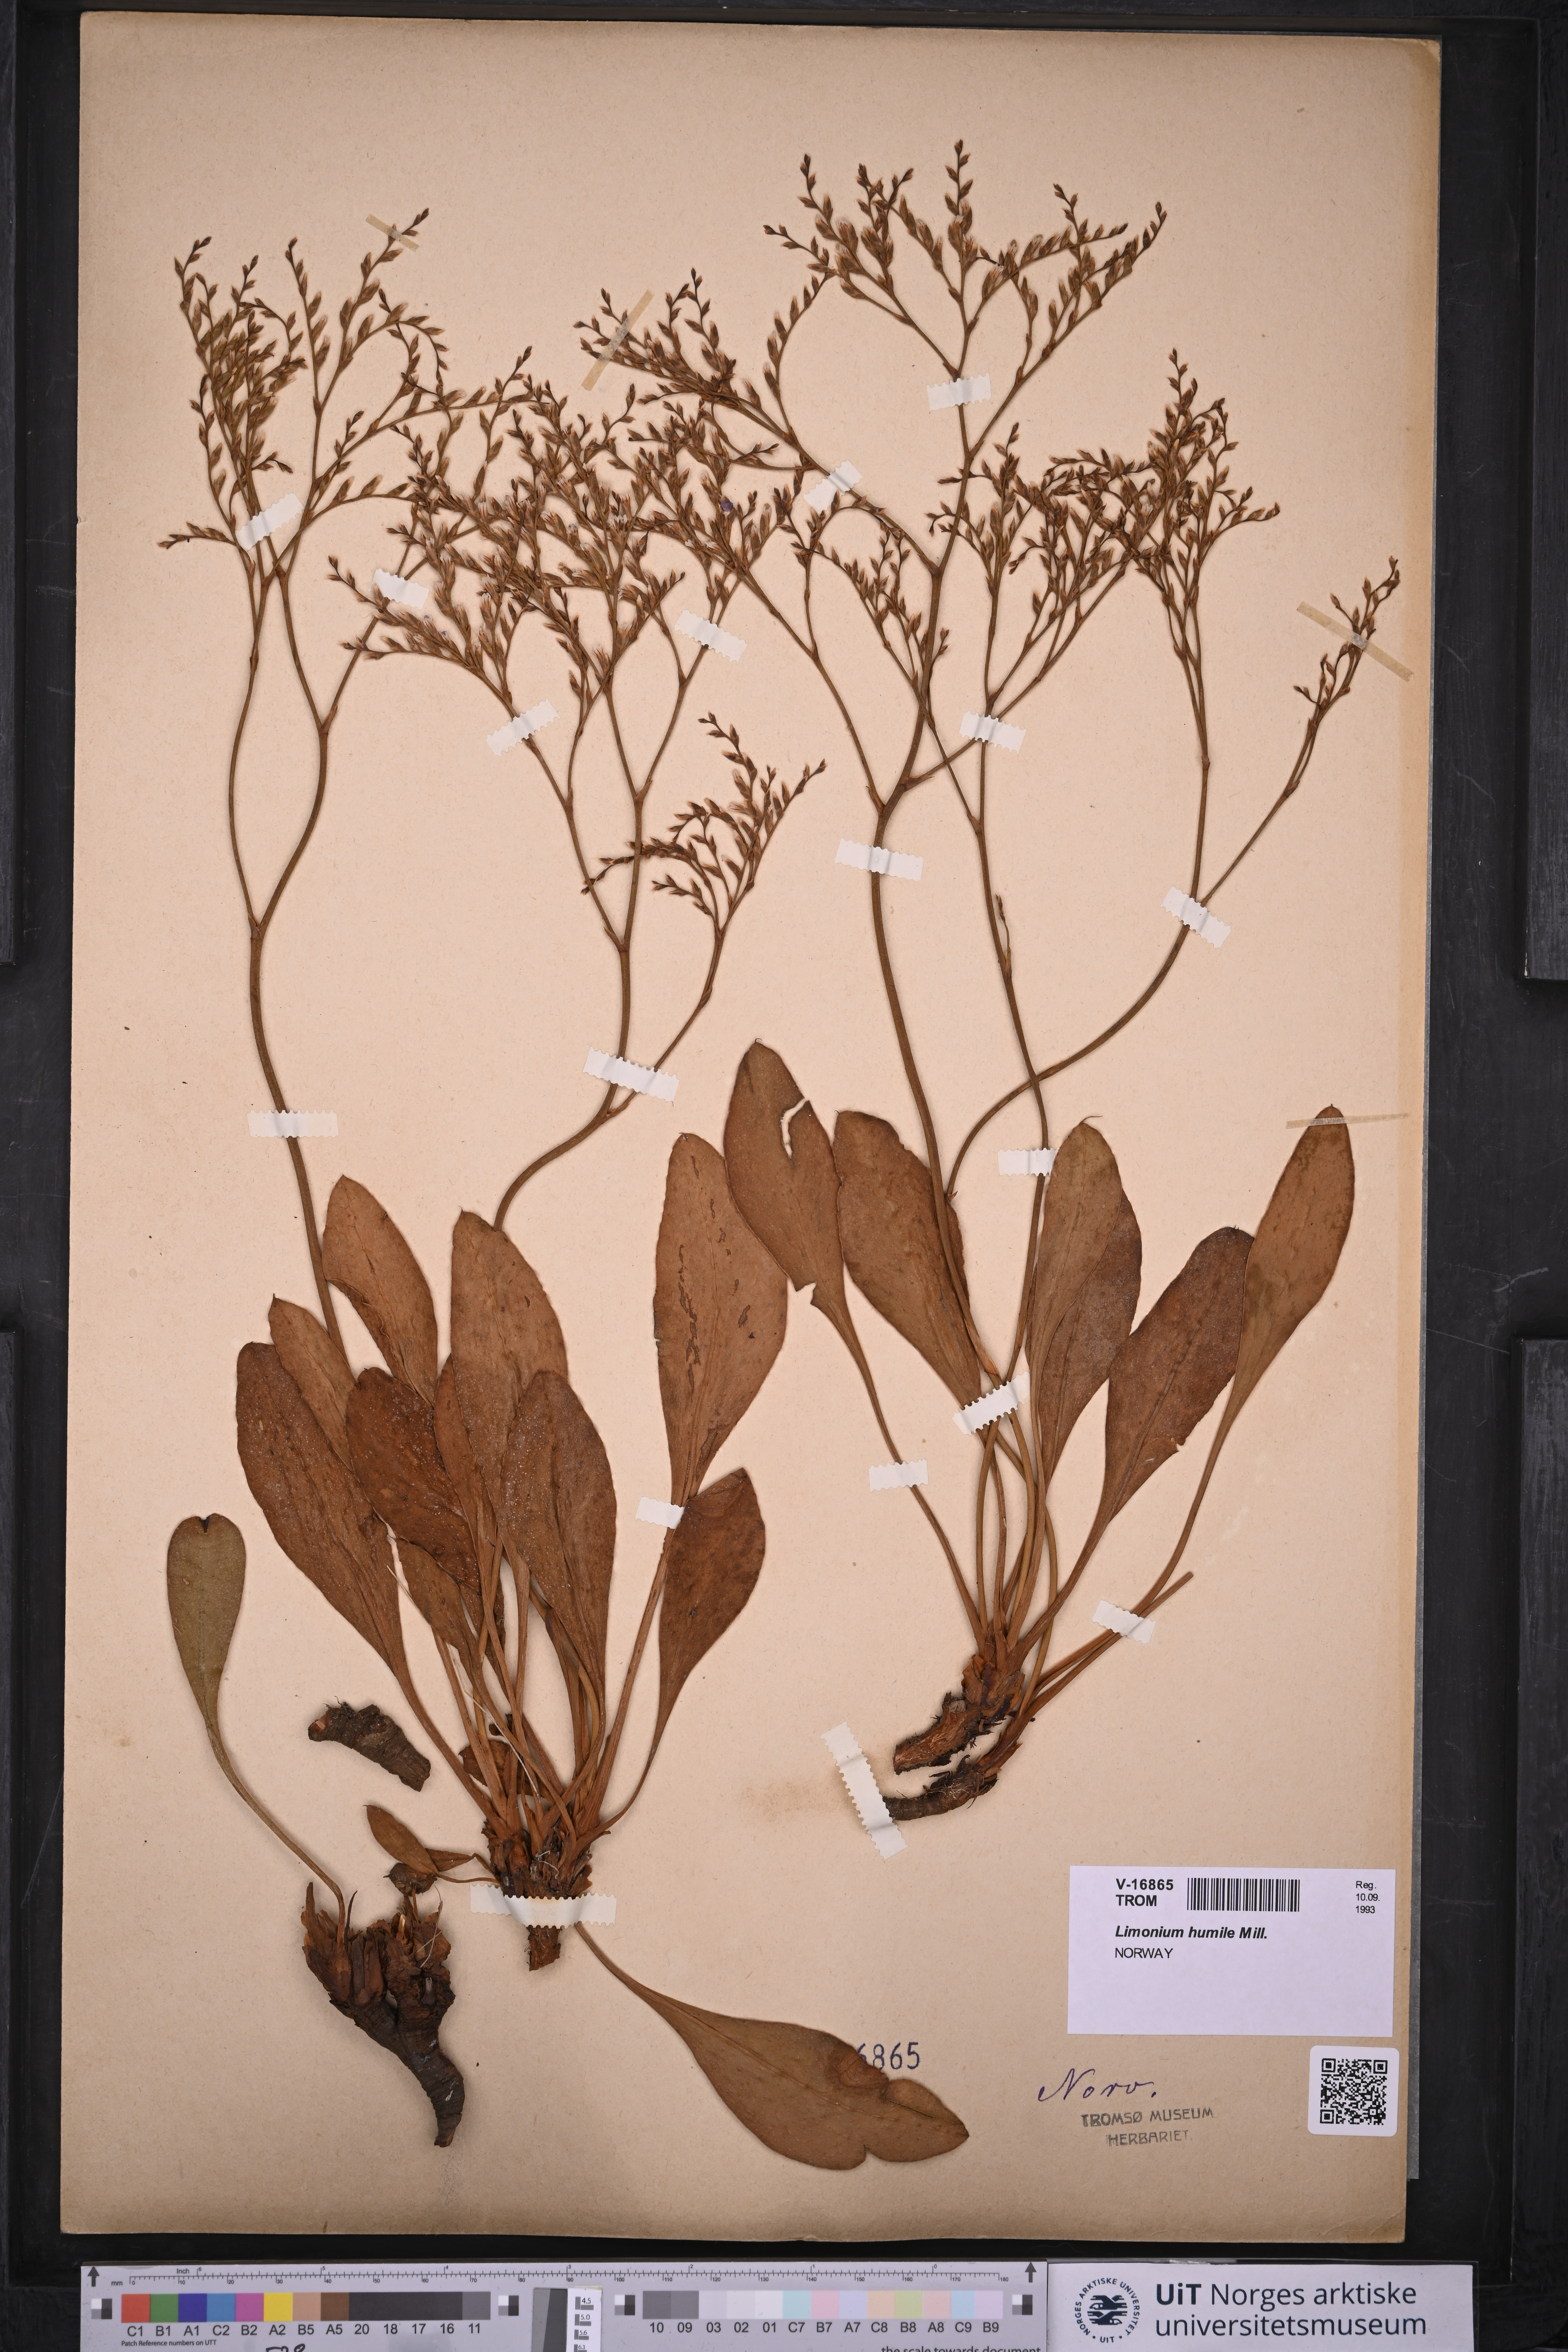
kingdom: Plantae
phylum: Tracheophyta
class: Magnoliopsida
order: Caryophyllales
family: Plumbaginaceae
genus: Limonium
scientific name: Limonium humile
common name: Lax-flowered sea-lavender
